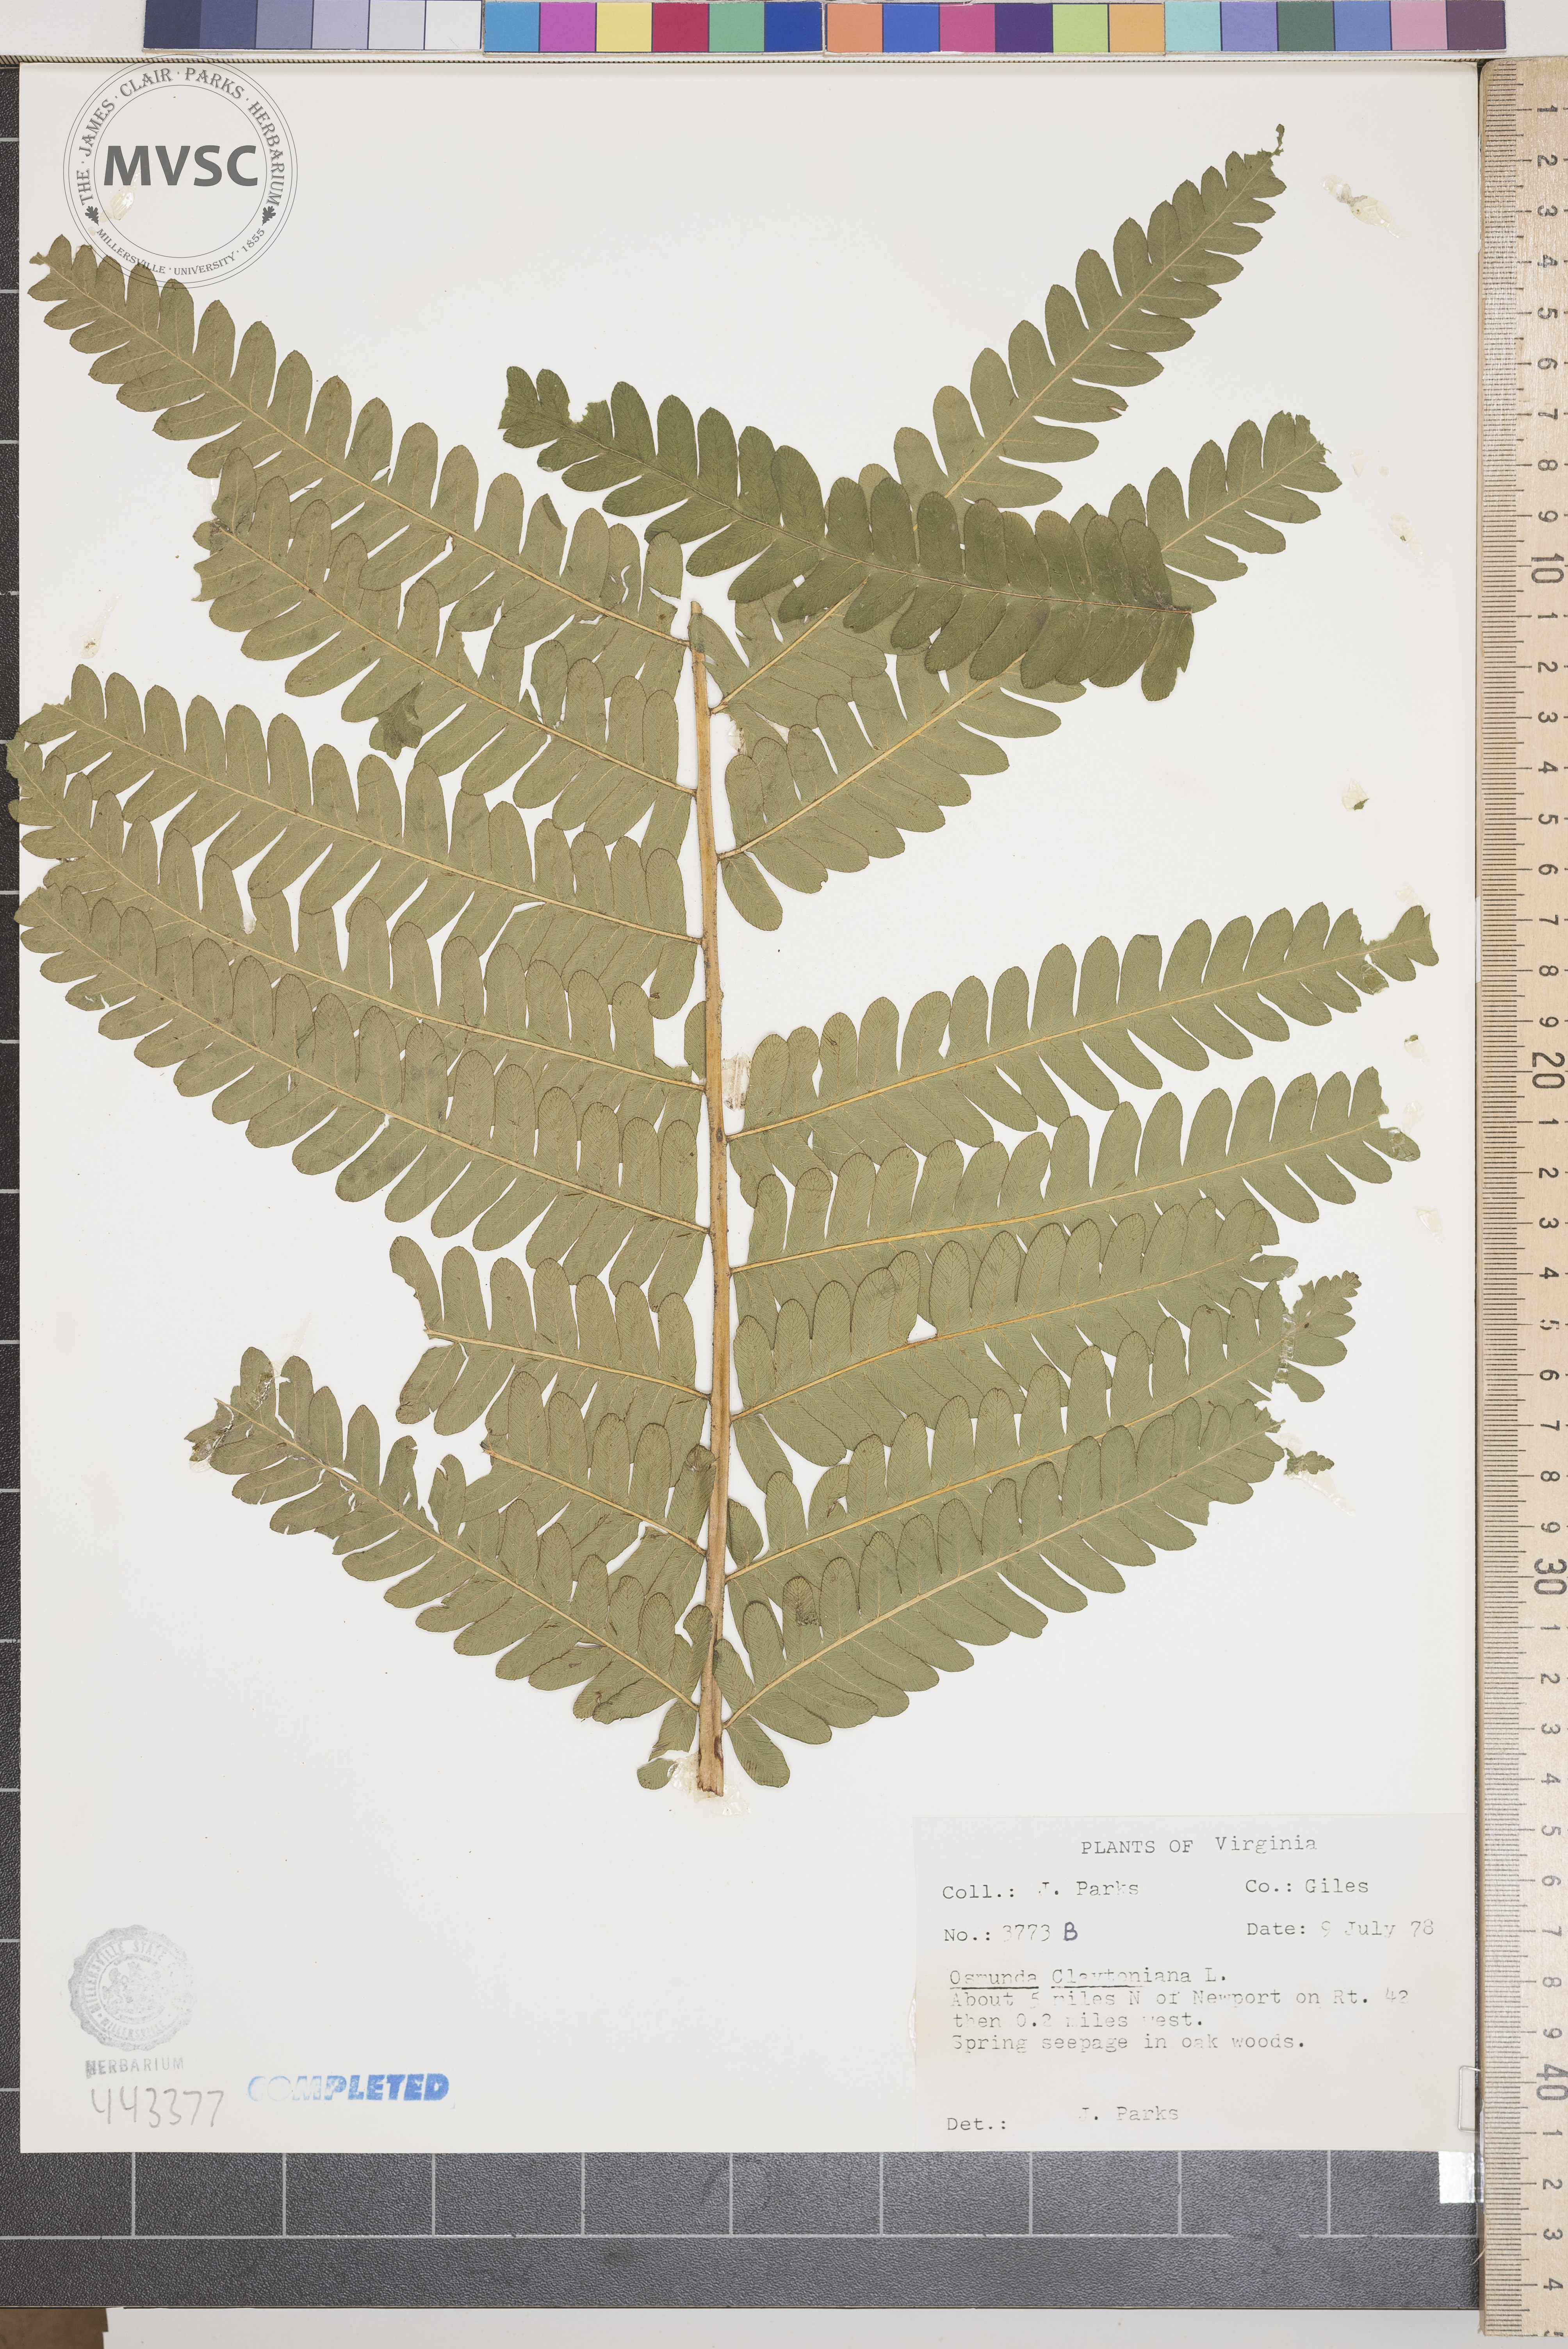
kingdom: Plantae
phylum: Tracheophyta
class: Polypodiopsida
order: Osmundales
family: Osmundaceae
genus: Claytosmunda
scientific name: Claytosmunda claytoniana
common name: Clayton's fern
